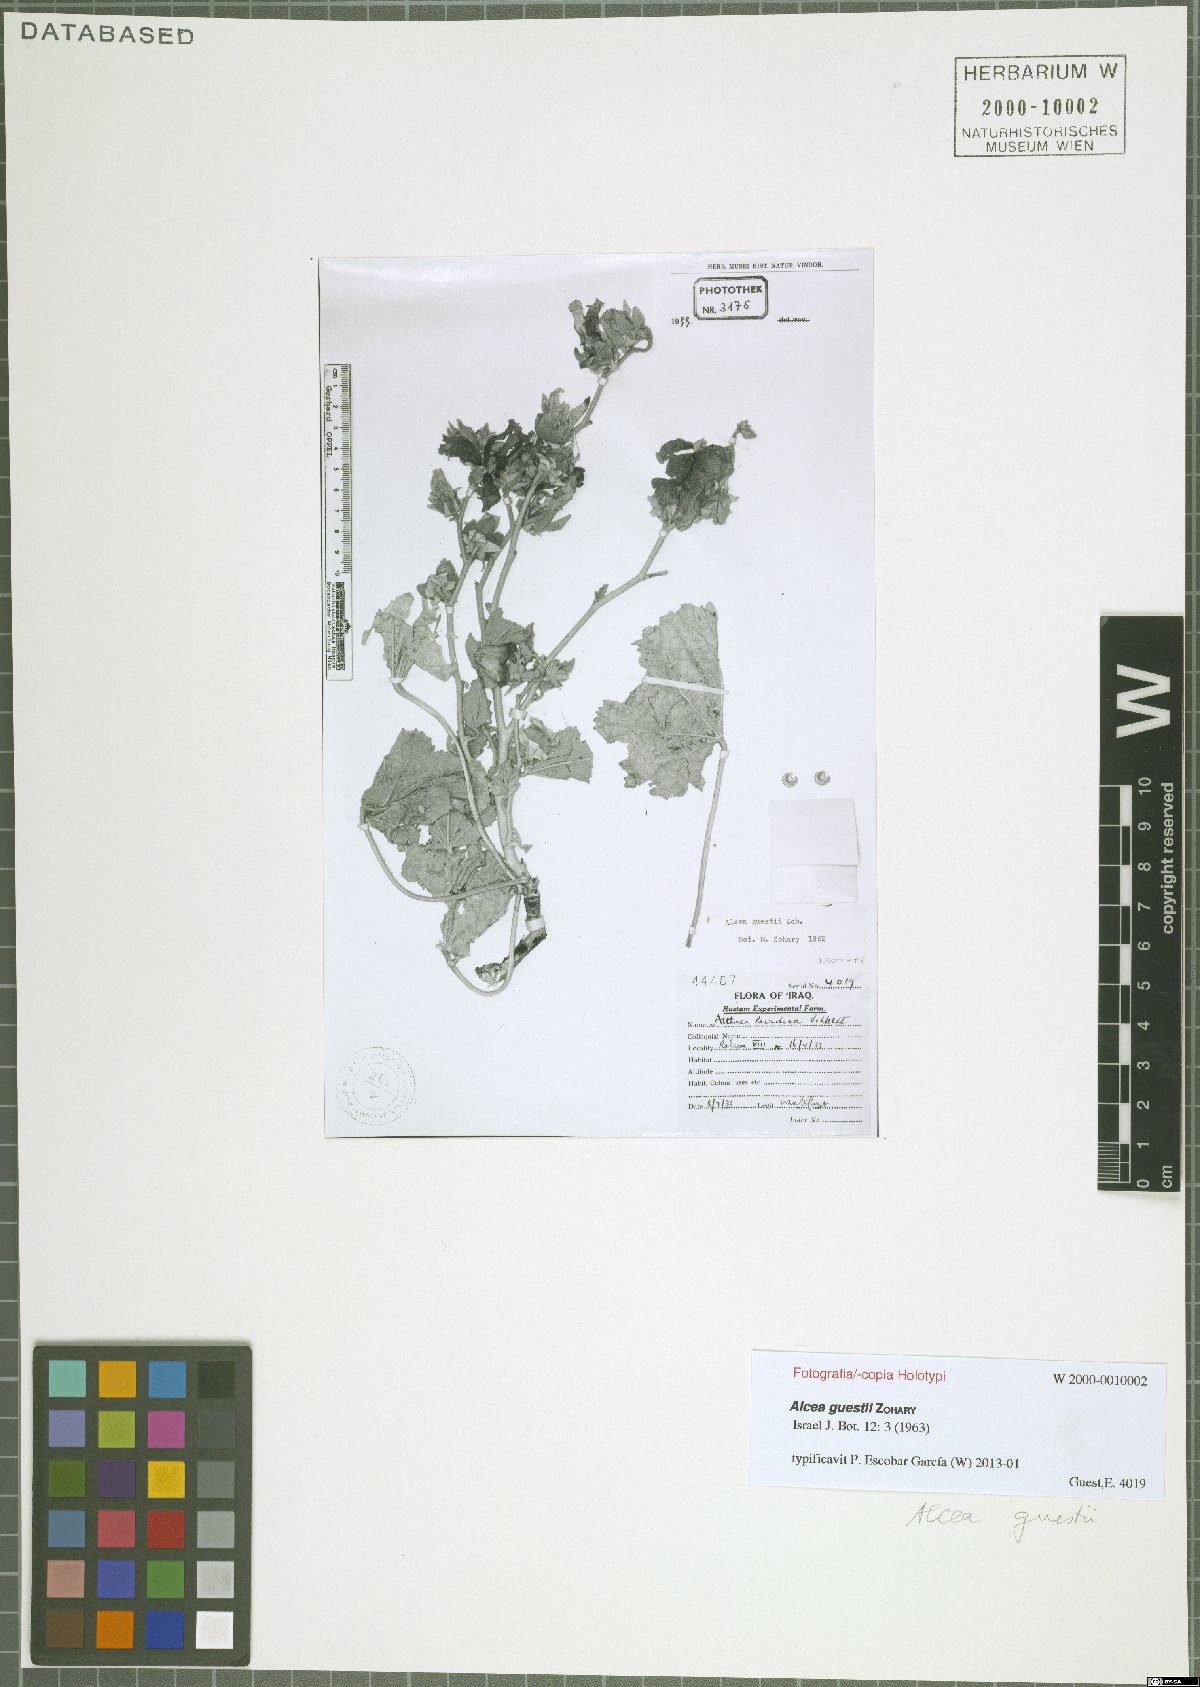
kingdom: Plantae
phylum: Tracheophyta
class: Magnoliopsida
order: Malvales
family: Malvaceae
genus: Alcea
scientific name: Alcea rufescens
